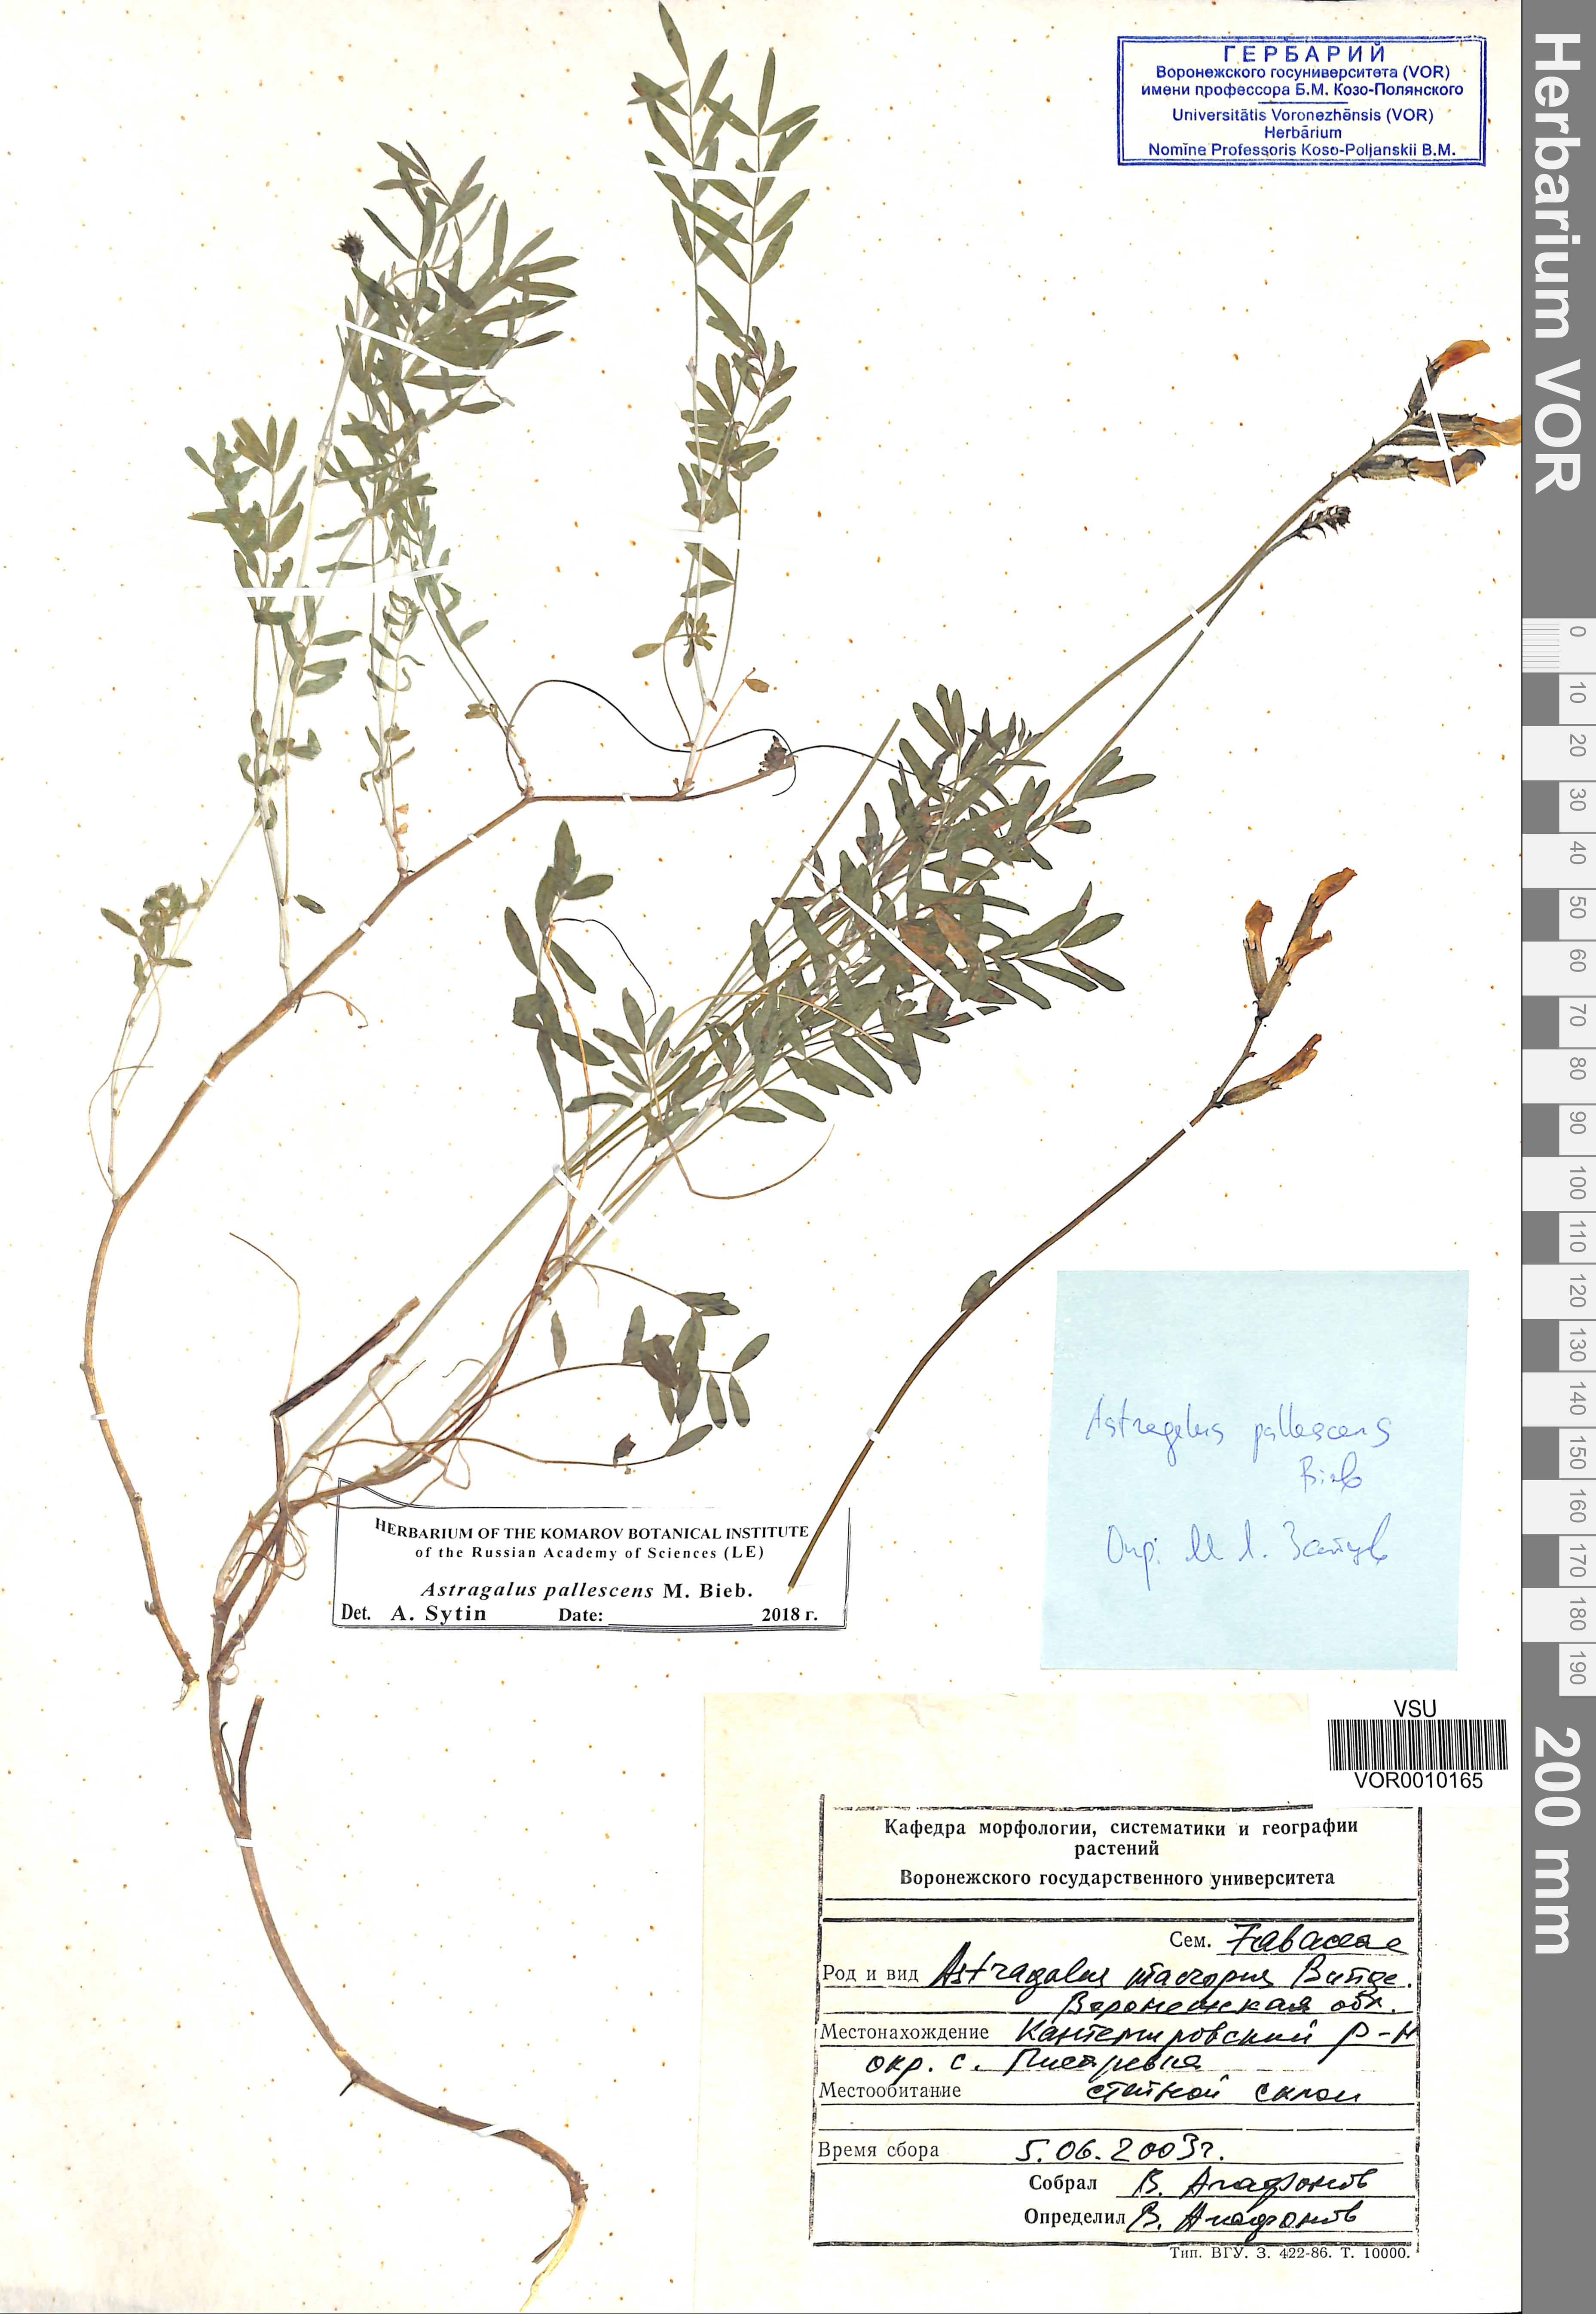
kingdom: Plantae
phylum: Tracheophyta
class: Magnoliopsida
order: Fabales
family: Fabaceae
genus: Astragalus
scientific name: Astragalus pallescens
